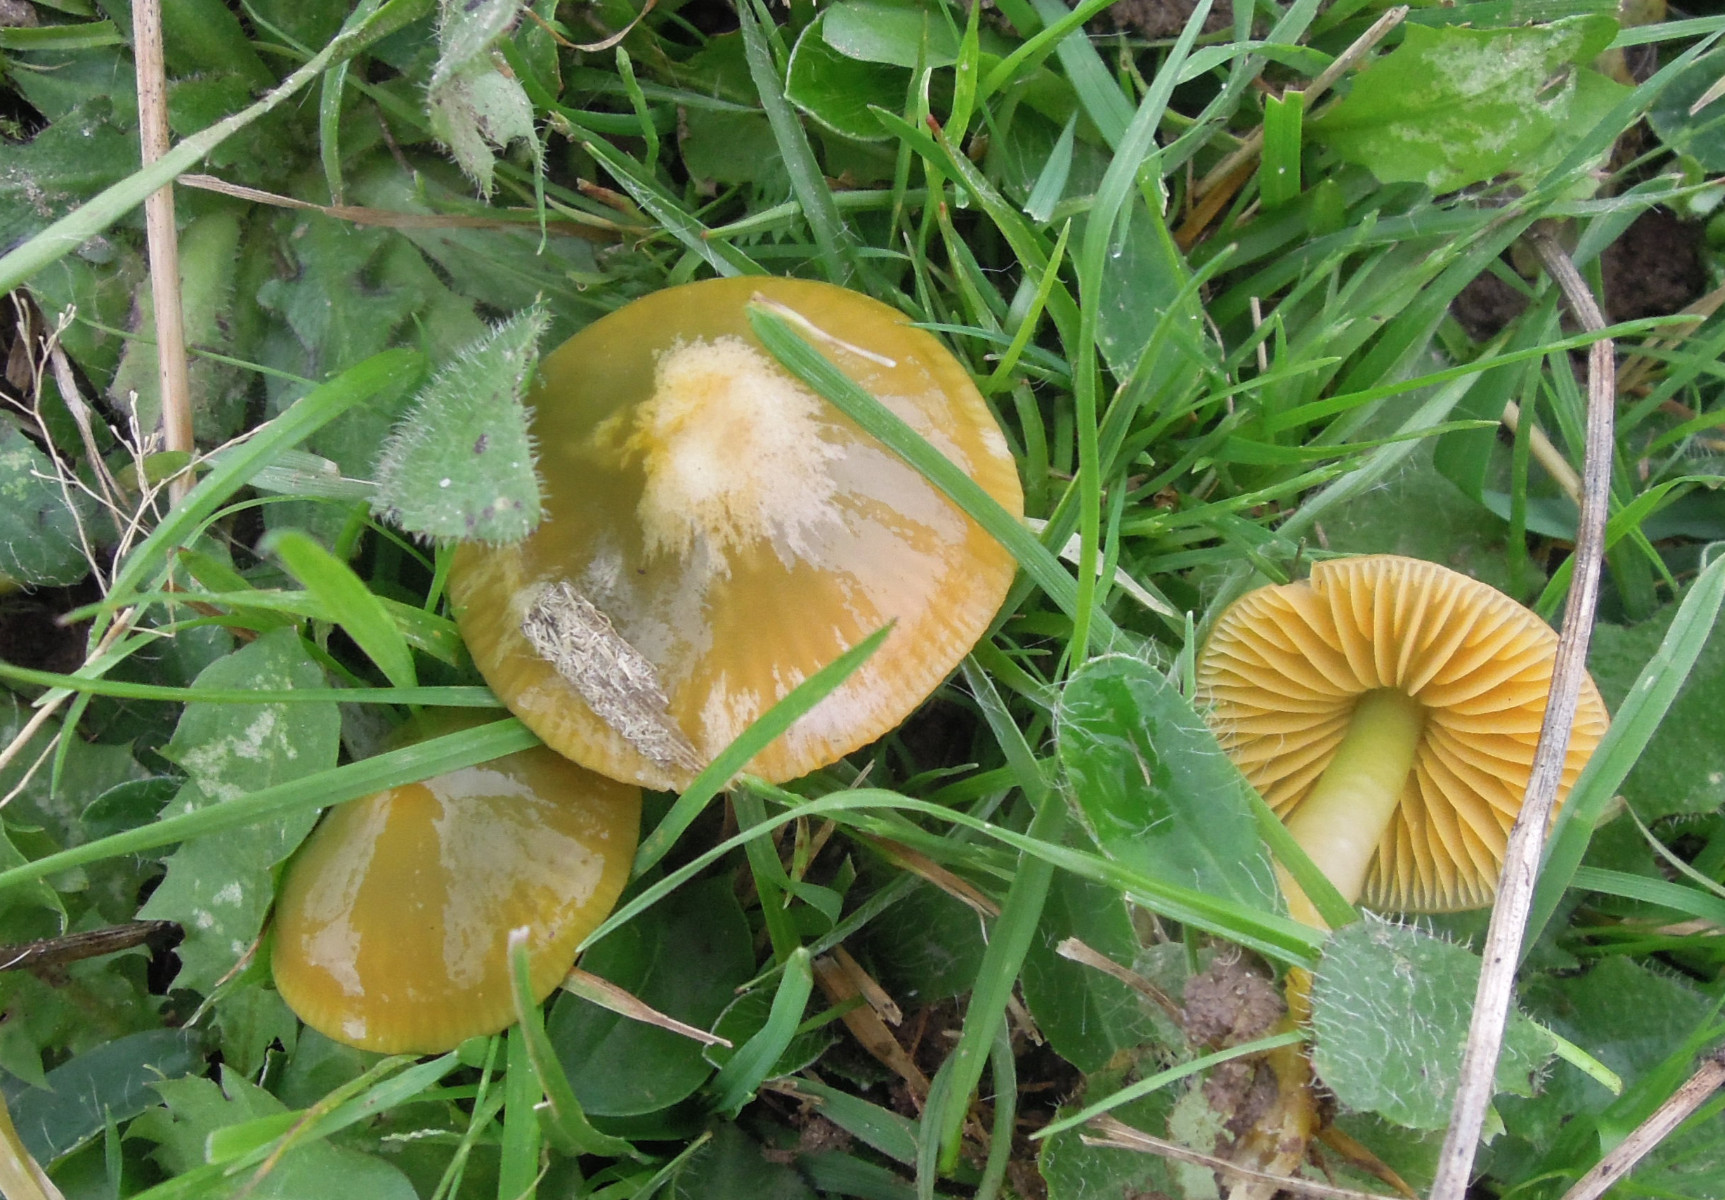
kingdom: Fungi
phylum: Basidiomycota
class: Agaricomycetes
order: Agaricales
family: Hygrophoraceae
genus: Gliophorus
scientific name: Gliophorus psittacinus
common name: papegøje-vokshat
